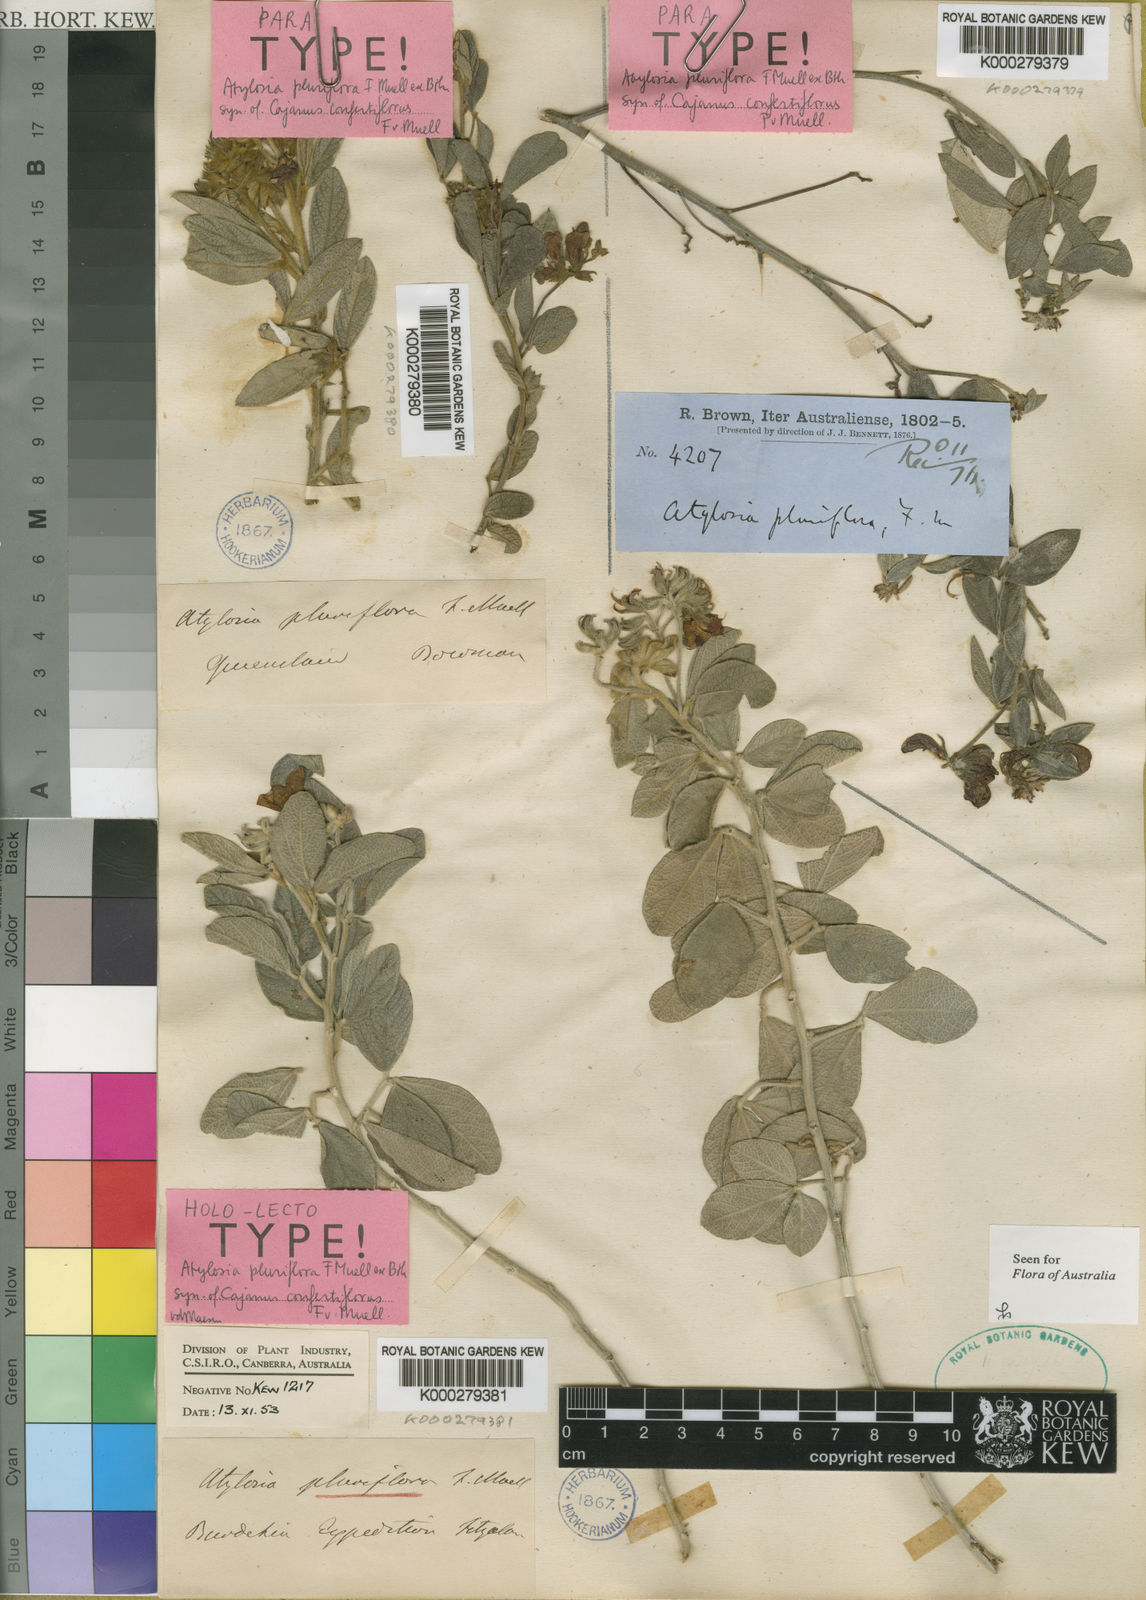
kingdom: Plantae
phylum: Tracheophyta
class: Magnoliopsida
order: Fabales
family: Fabaceae
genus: Cajanus
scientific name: Cajanus confertiflorus
